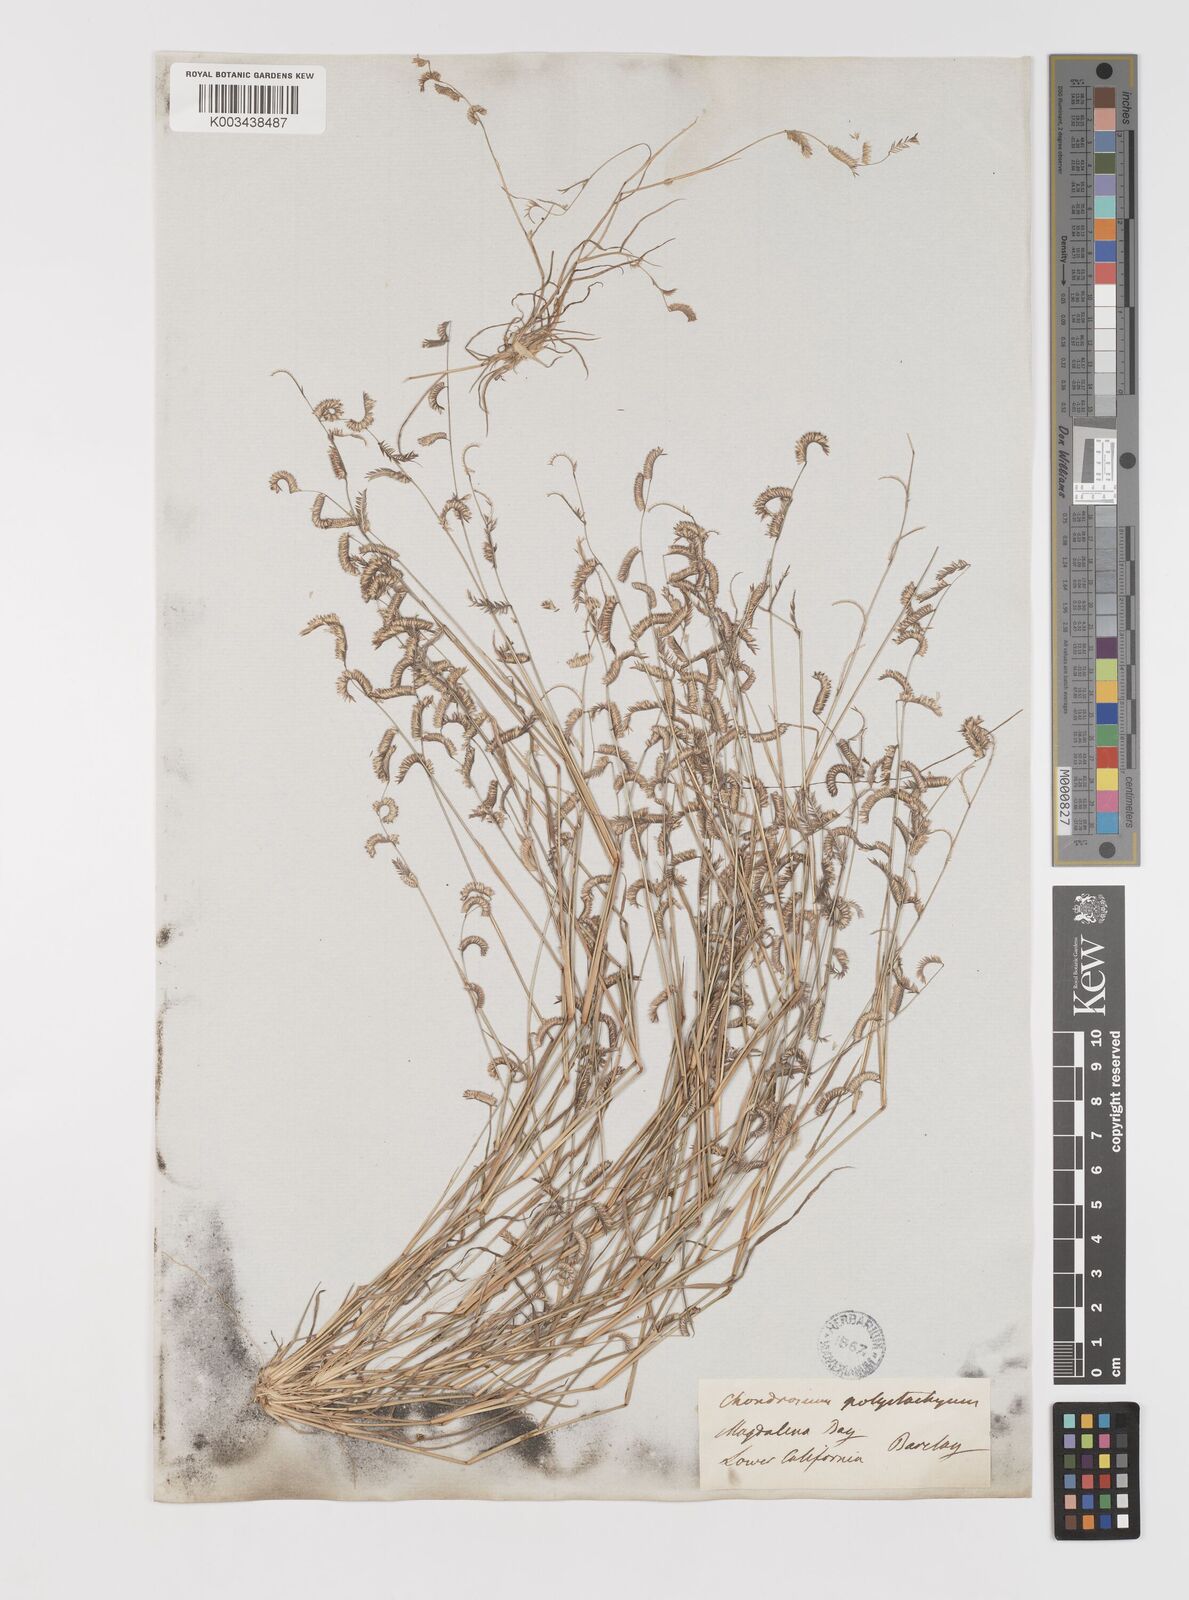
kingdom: Plantae
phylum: Tracheophyta
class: Liliopsida
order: Poales
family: Poaceae
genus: Bouteloua
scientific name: Bouteloua
